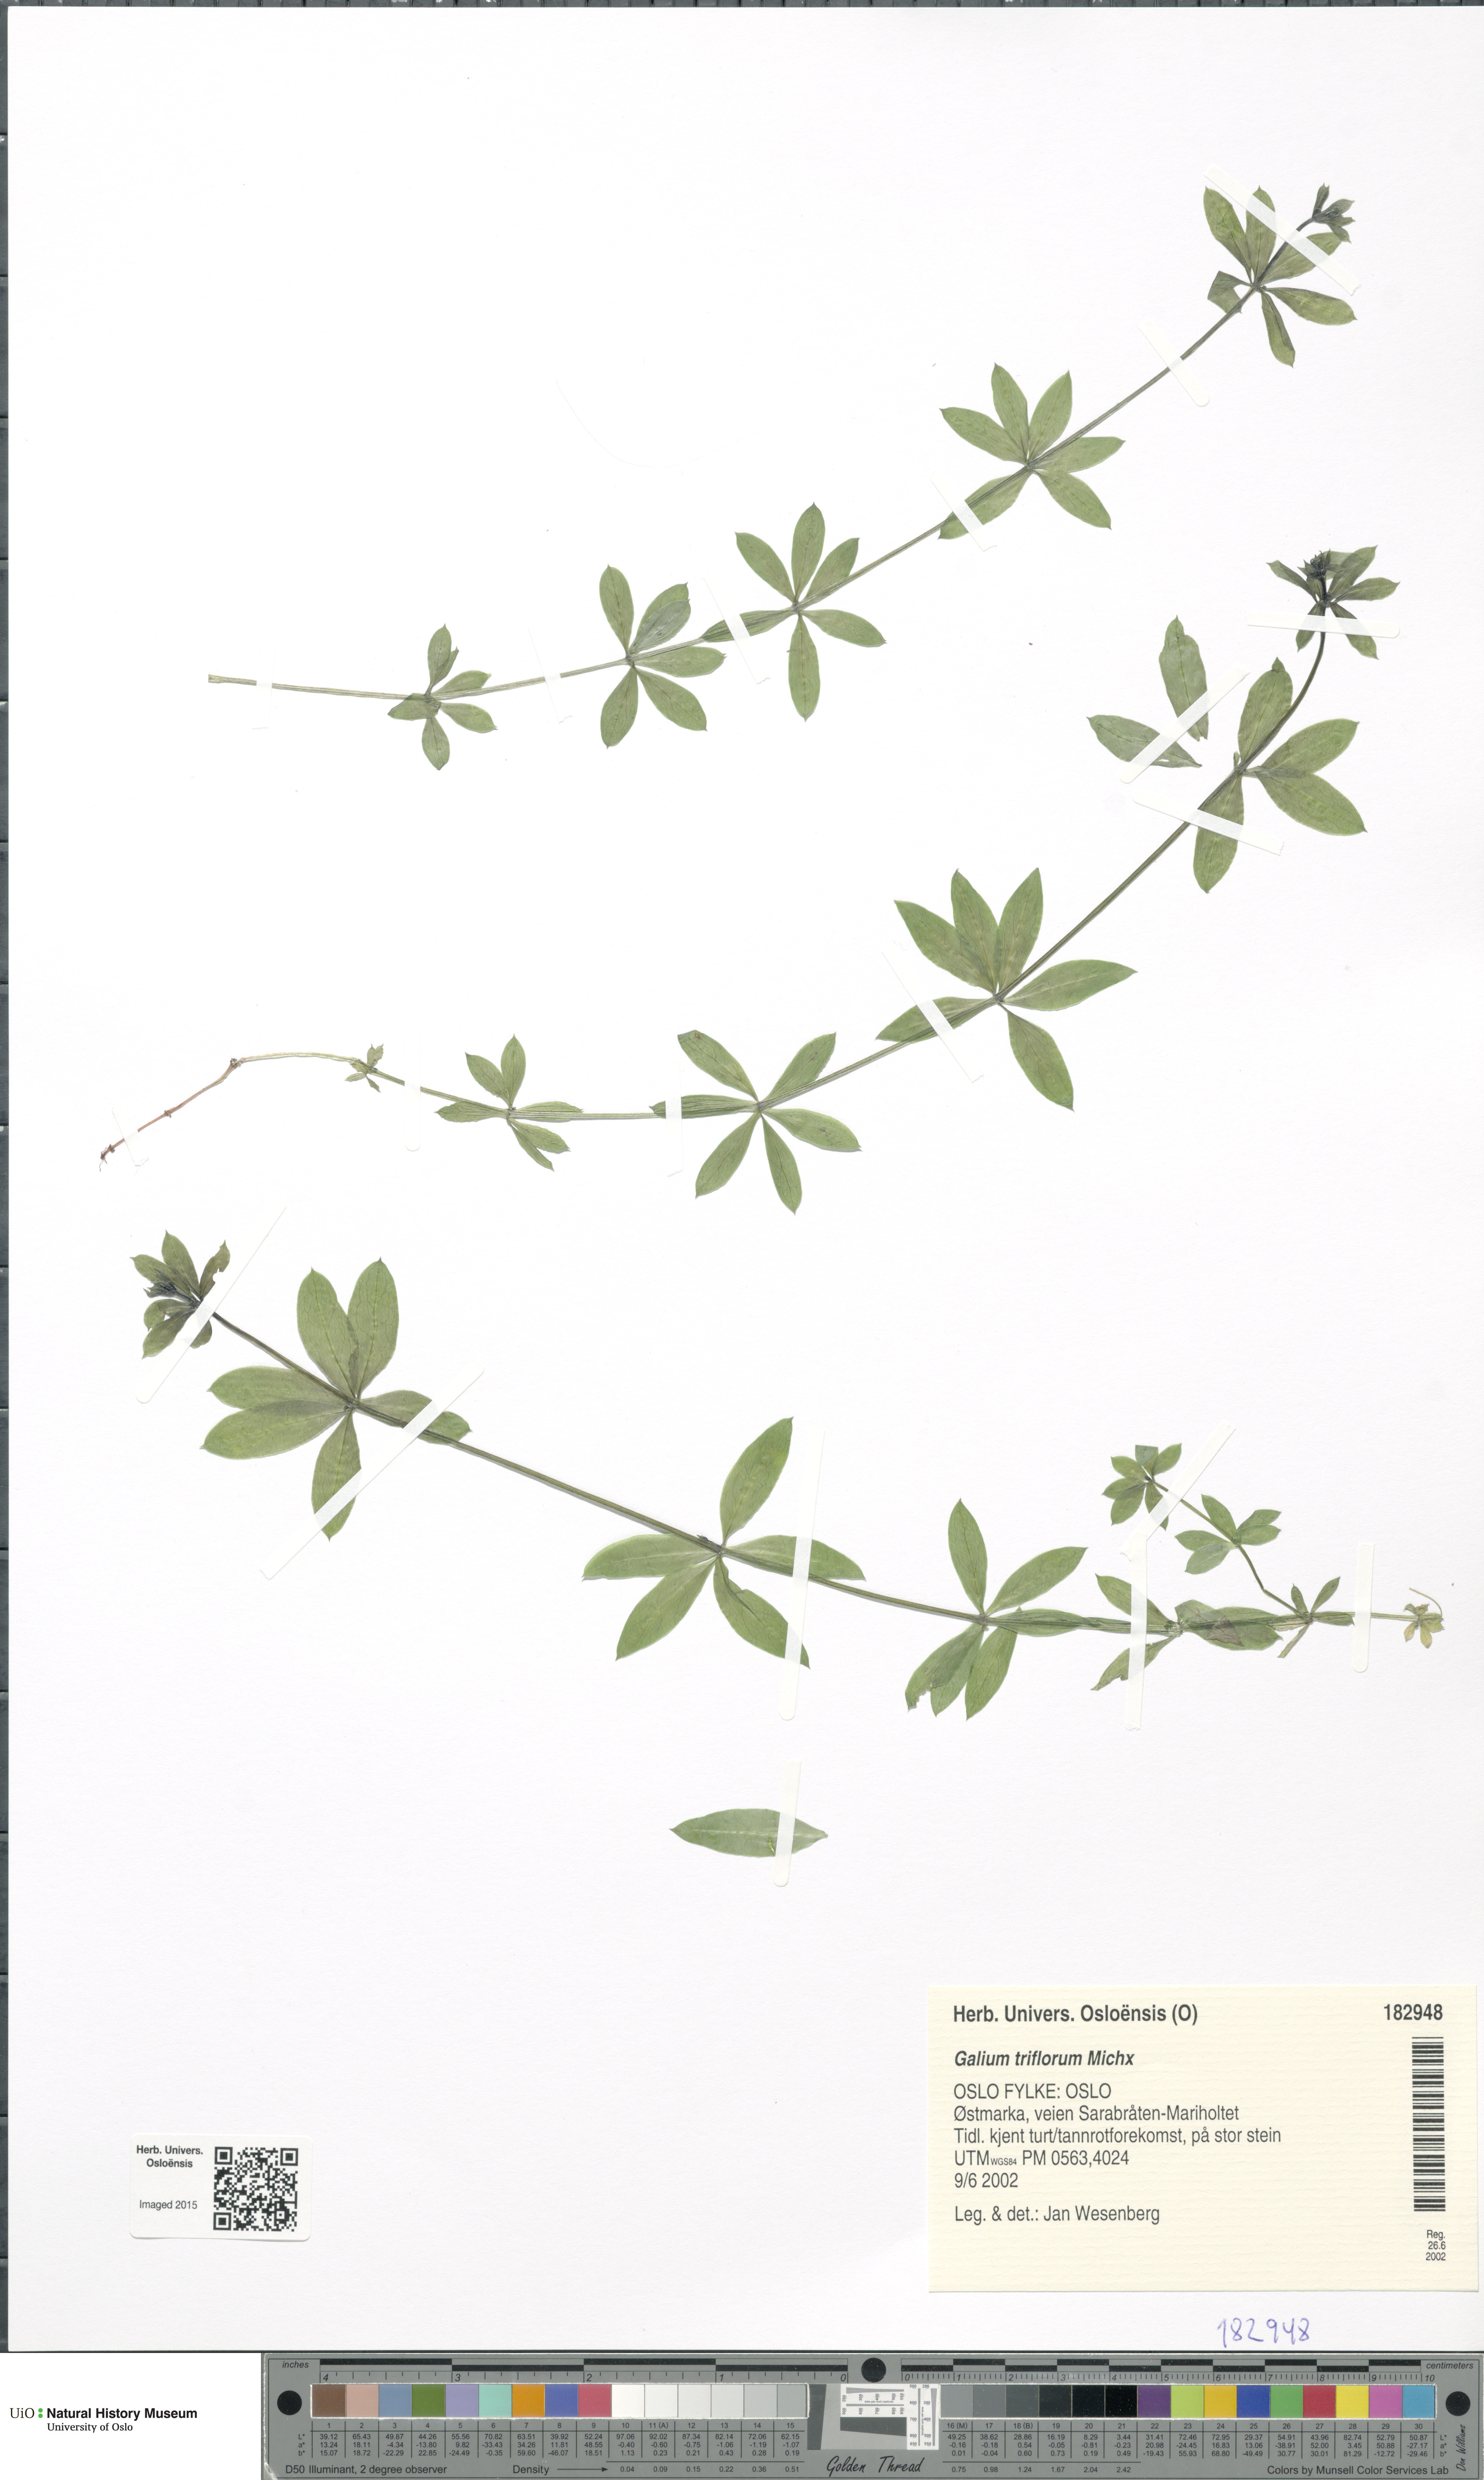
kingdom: Plantae
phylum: Tracheophyta
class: Magnoliopsida
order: Gentianales
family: Rubiaceae
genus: Galium
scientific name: Galium triflorum
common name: Fragrant bedstraw
